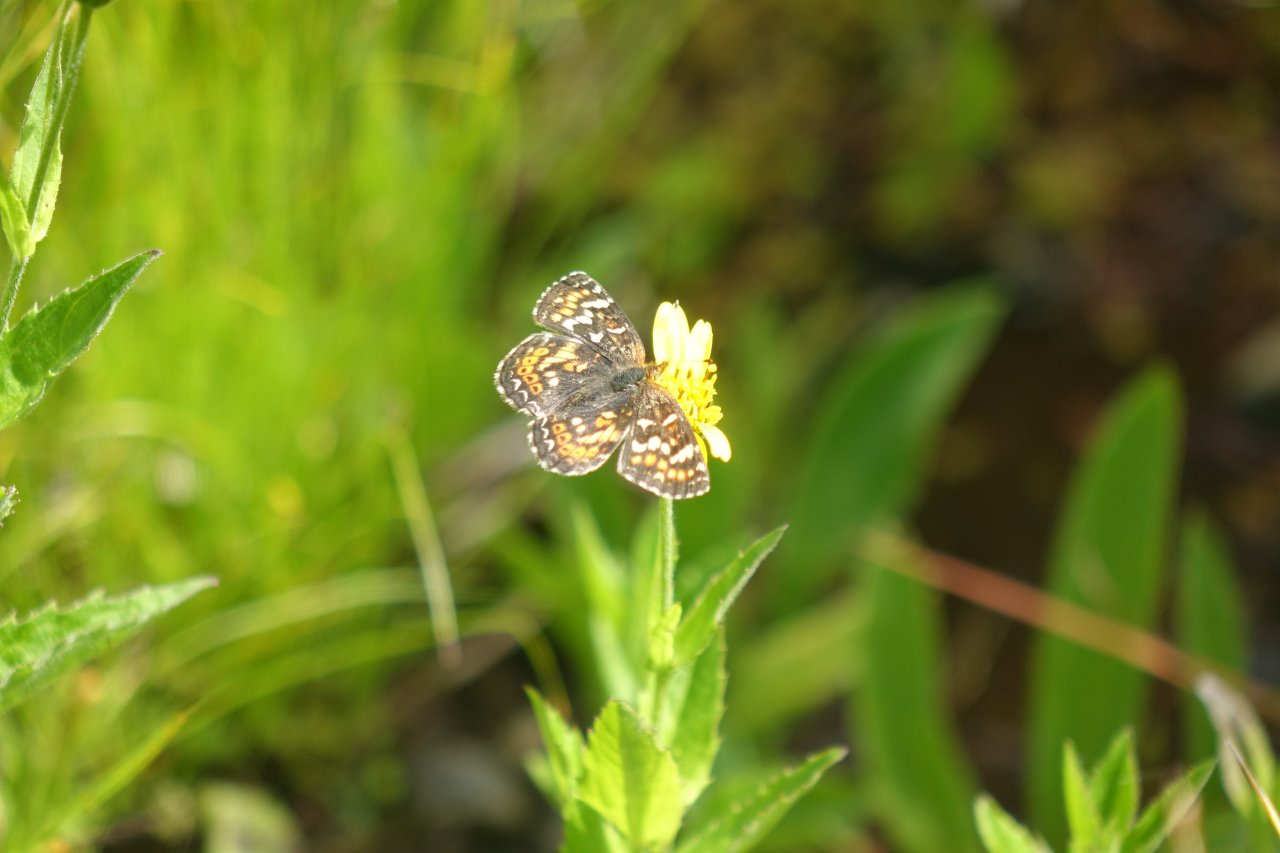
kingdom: Animalia
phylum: Arthropoda
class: Insecta
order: Lepidoptera
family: Nymphalidae
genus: Phyciodes
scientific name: Phyciodes tharos
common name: Field Crescent
